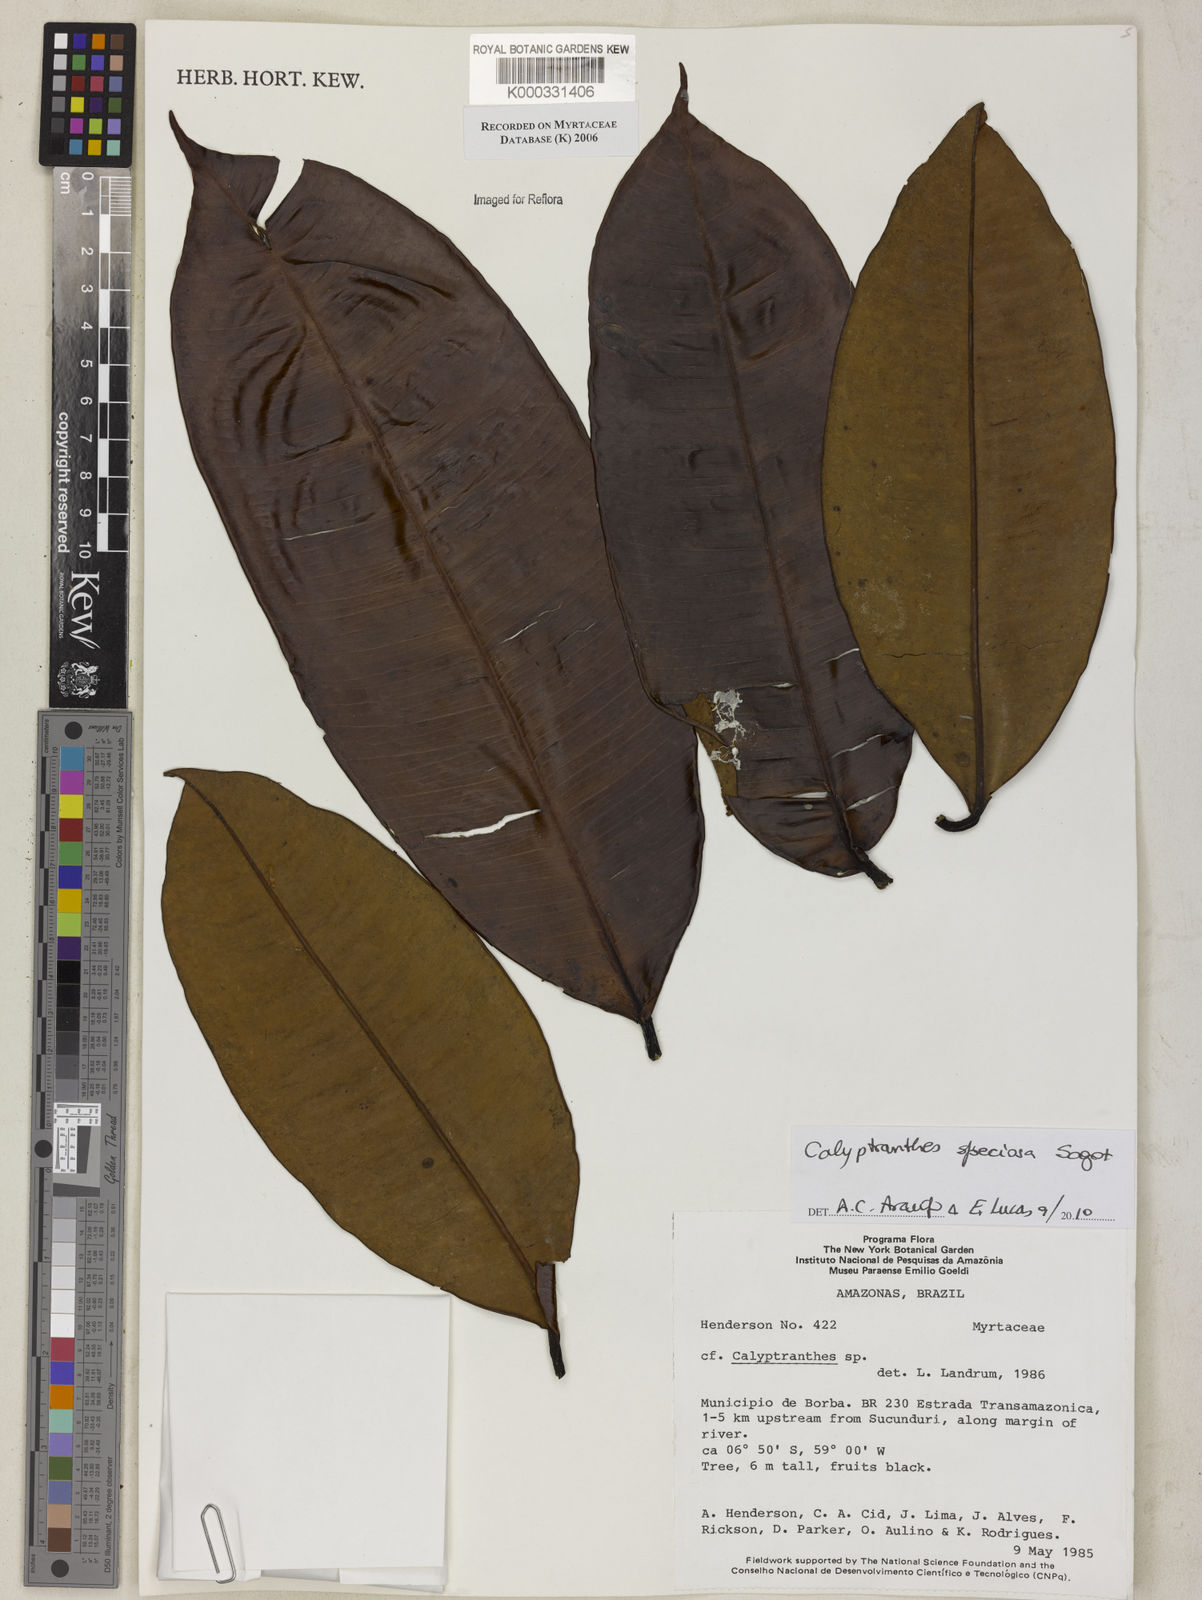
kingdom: Plantae
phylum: Tracheophyta
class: Magnoliopsida
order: Myrtales
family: Myrtaceae
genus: Calyptranthes
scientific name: Calyptranthes
